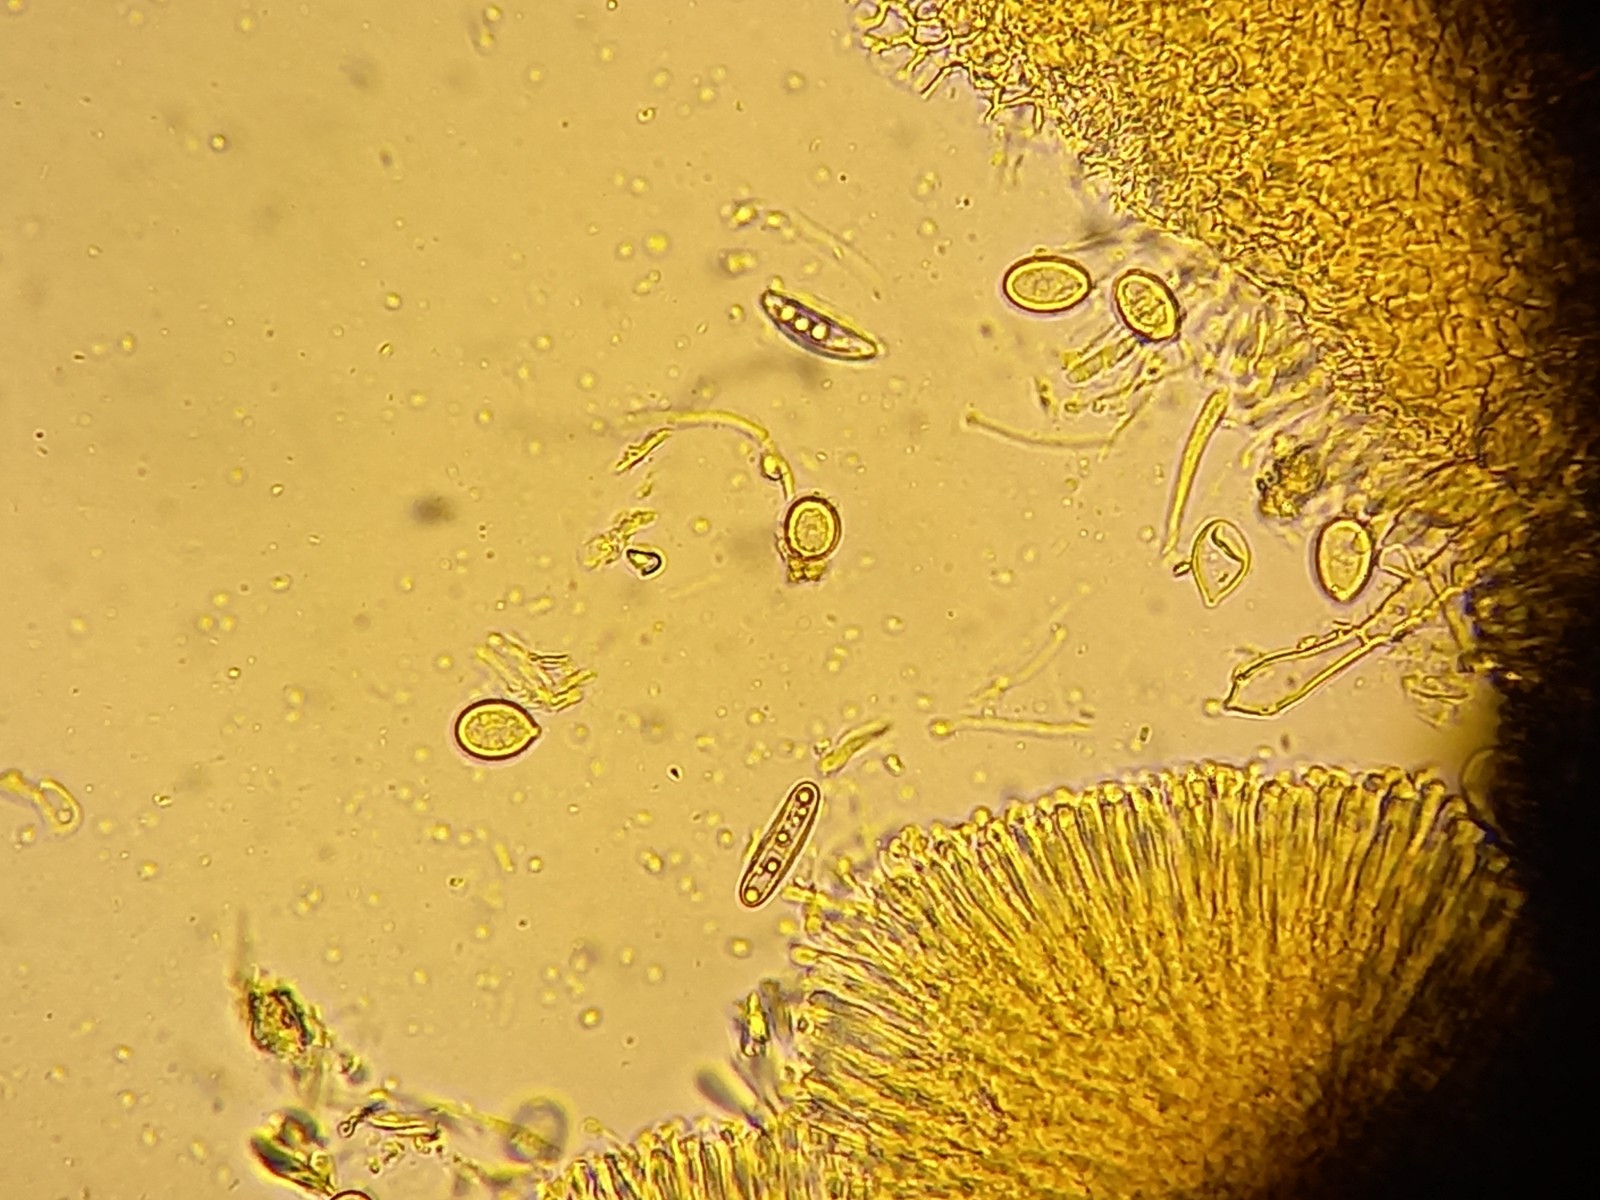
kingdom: Fungi
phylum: Ascomycota
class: Orbiliomycetes
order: Orbiliales
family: Orbiliaceae
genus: Orbilia
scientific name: Orbilia xanthostigma
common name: krumsporet voksskive
